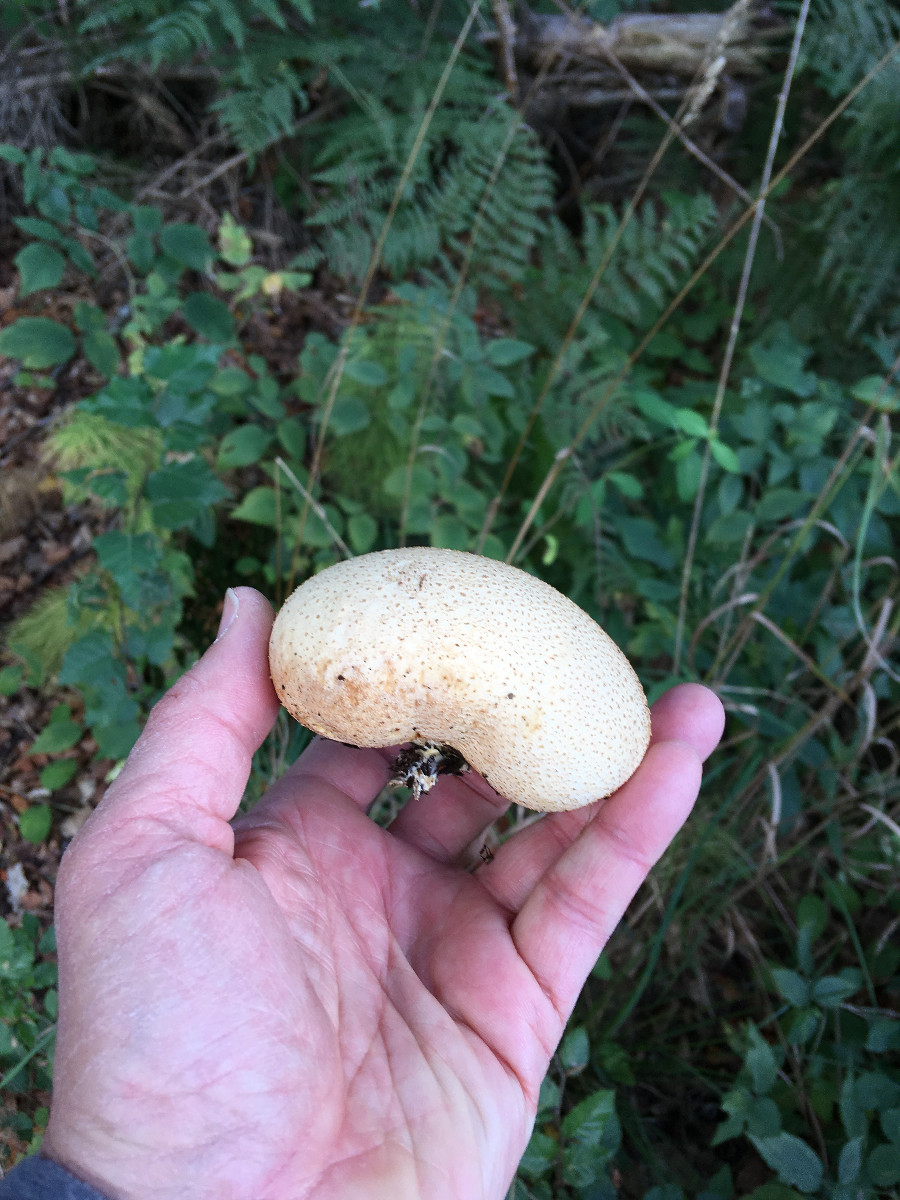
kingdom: Fungi
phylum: Basidiomycota
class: Agaricomycetes
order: Boletales
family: Sclerodermataceae
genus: Scleroderma
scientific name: Scleroderma citrinum
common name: almindelig bruskbold
